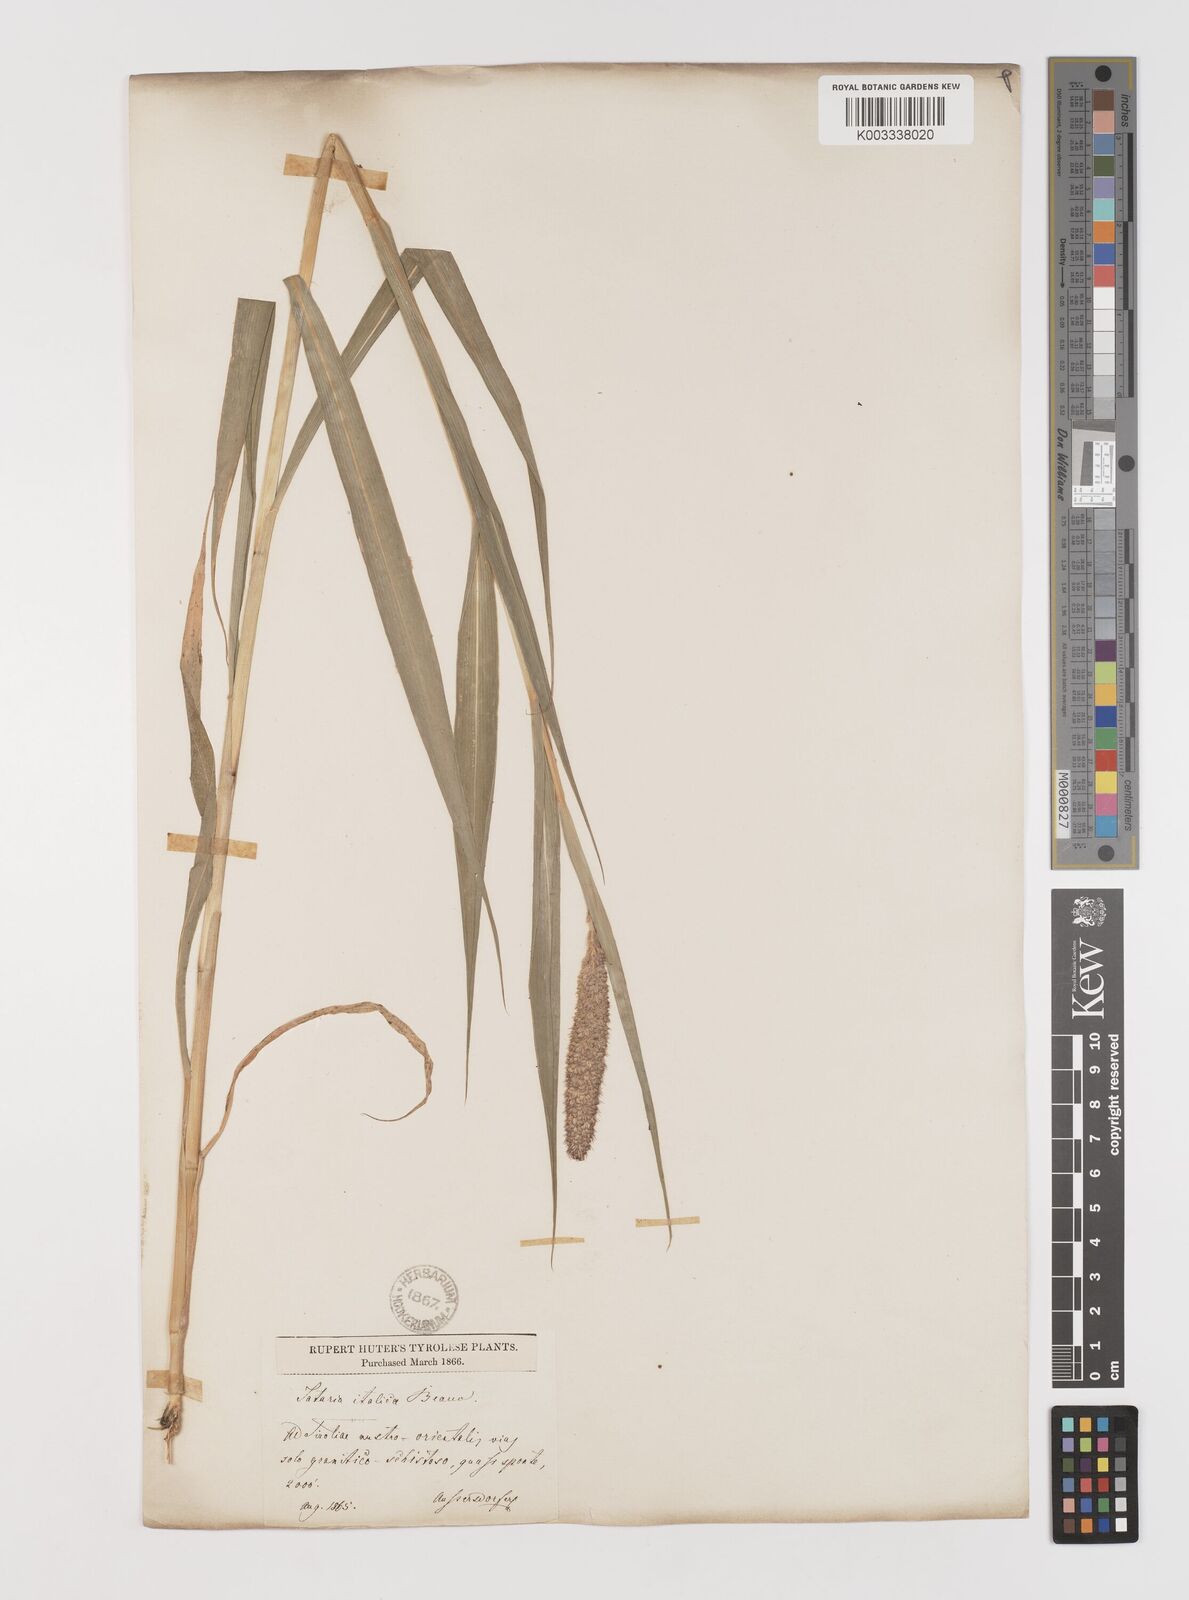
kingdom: Plantae
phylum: Tracheophyta
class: Liliopsida
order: Poales
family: Poaceae
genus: Setaria
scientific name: Setaria italica
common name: Foxtail bristle-grass
